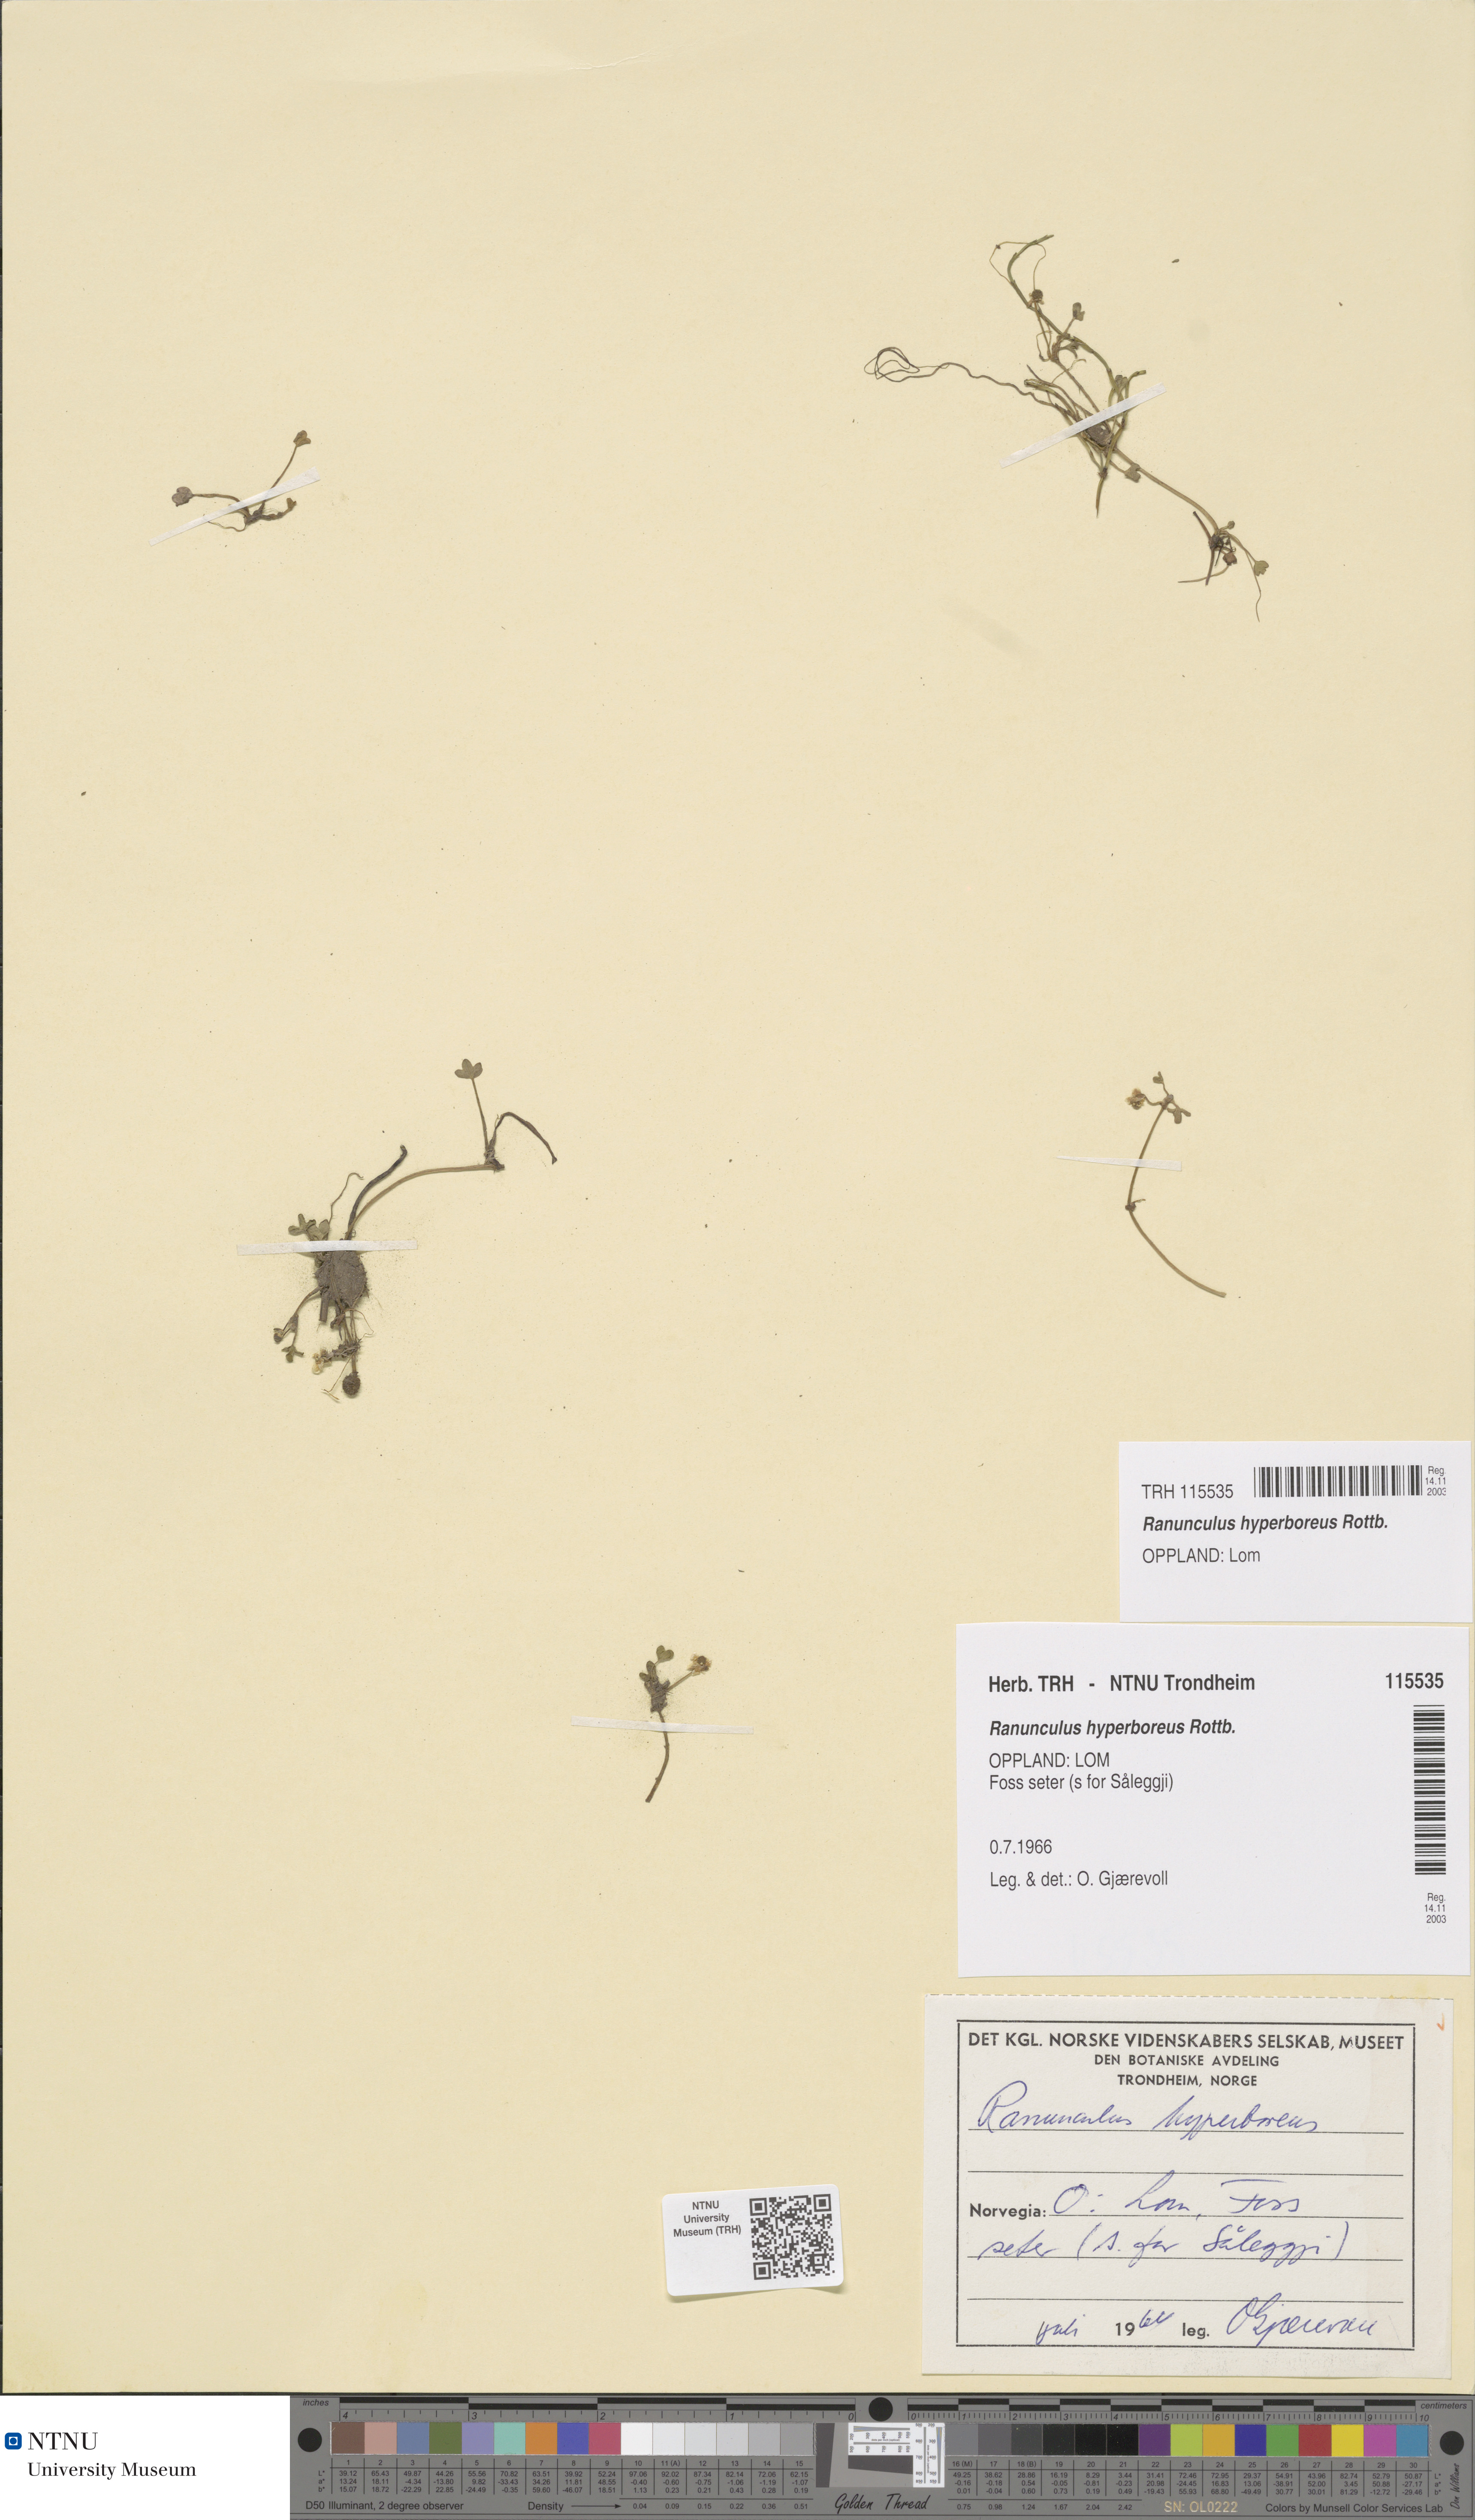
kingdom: Plantae
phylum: Tracheophyta
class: Magnoliopsida
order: Ranunculales
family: Ranunculaceae
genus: Ranunculus
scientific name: Ranunculus hyperboreus
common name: Arctic buttercup
